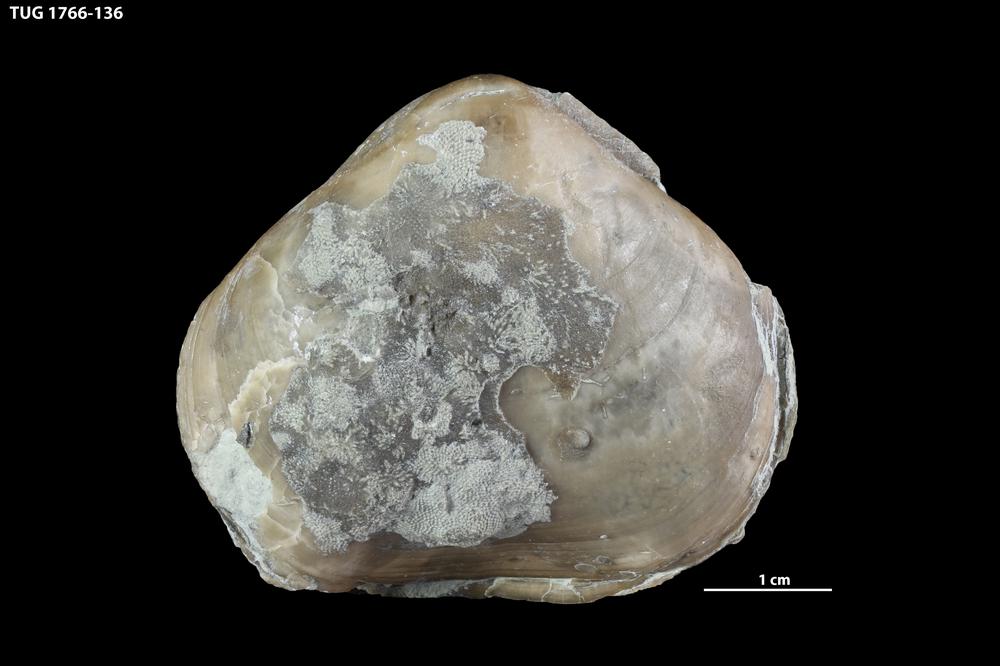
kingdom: Animalia
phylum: Brachiopoda
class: Rhynchonellata
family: Porambonitidae
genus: Porambonites
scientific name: Porambonites
